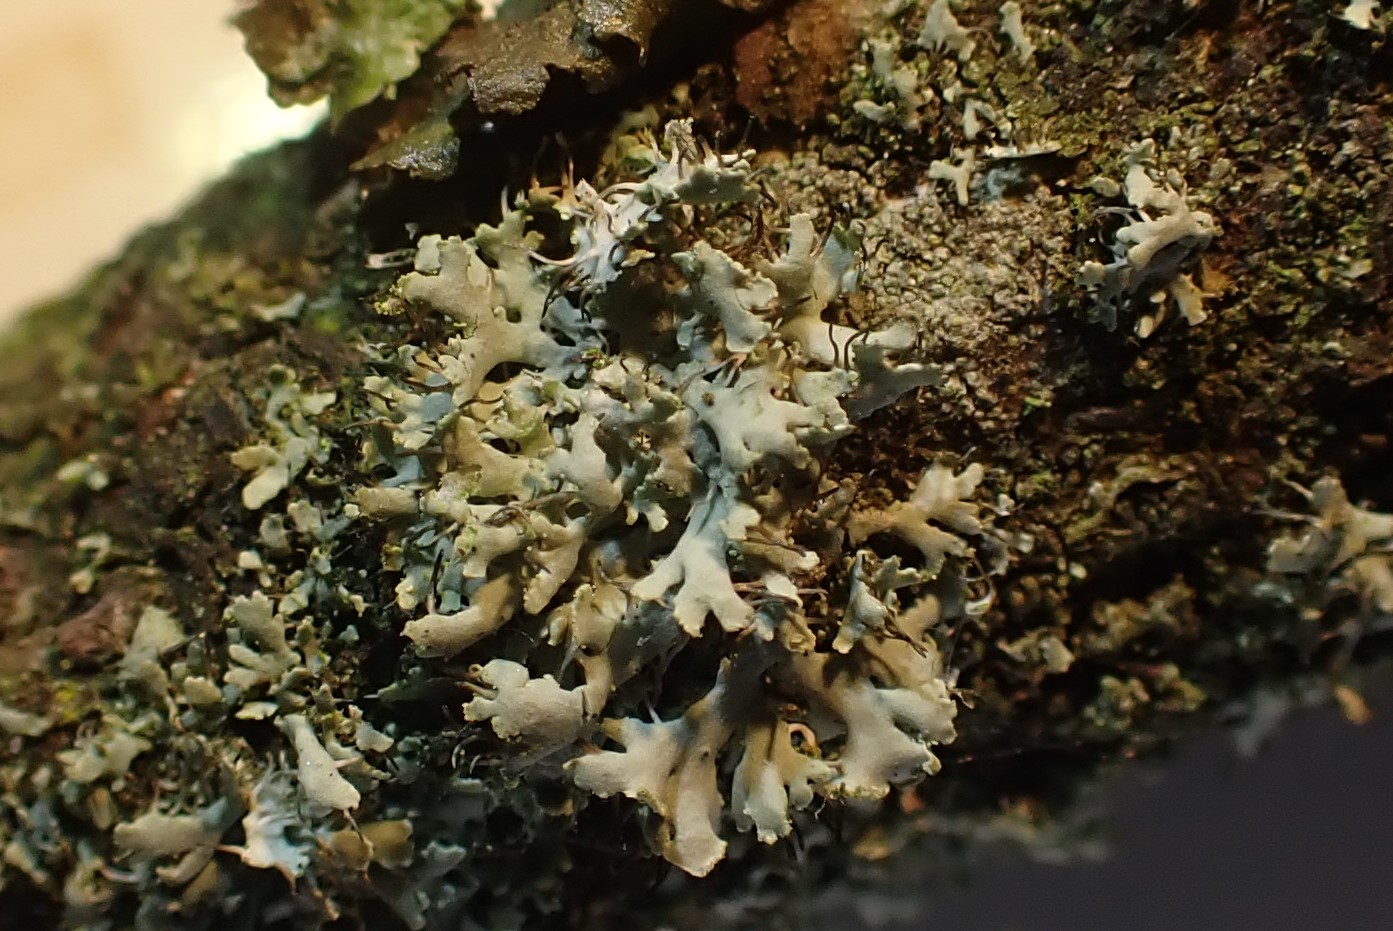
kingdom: Fungi
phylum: Ascomycota
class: Lecanoromycetes
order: Caliciales
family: Physciaceae
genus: Physcia
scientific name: Physcia tenella
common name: spæd rosetlav
